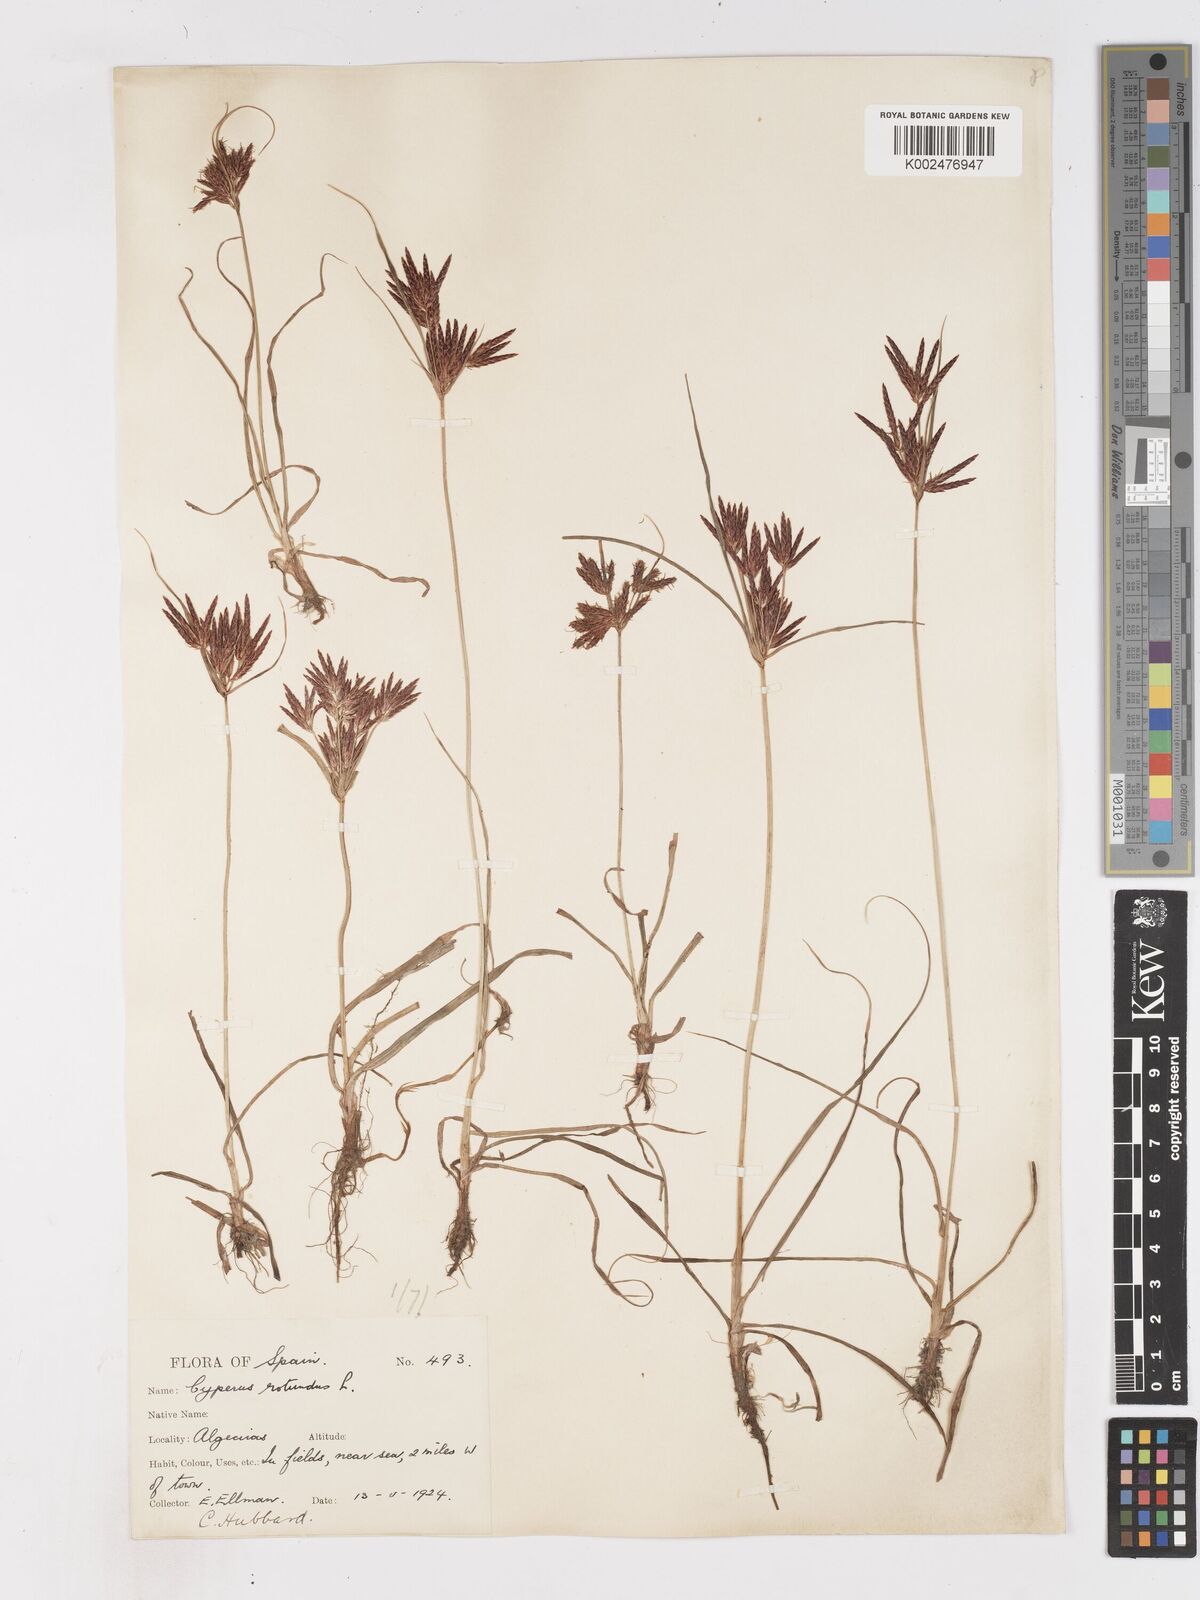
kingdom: Plantae
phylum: Tracheophyta
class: Liliopsida
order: Poales
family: Cyperaceae
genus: Cyperus
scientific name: Cyperus rotundus
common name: Nutgrass
